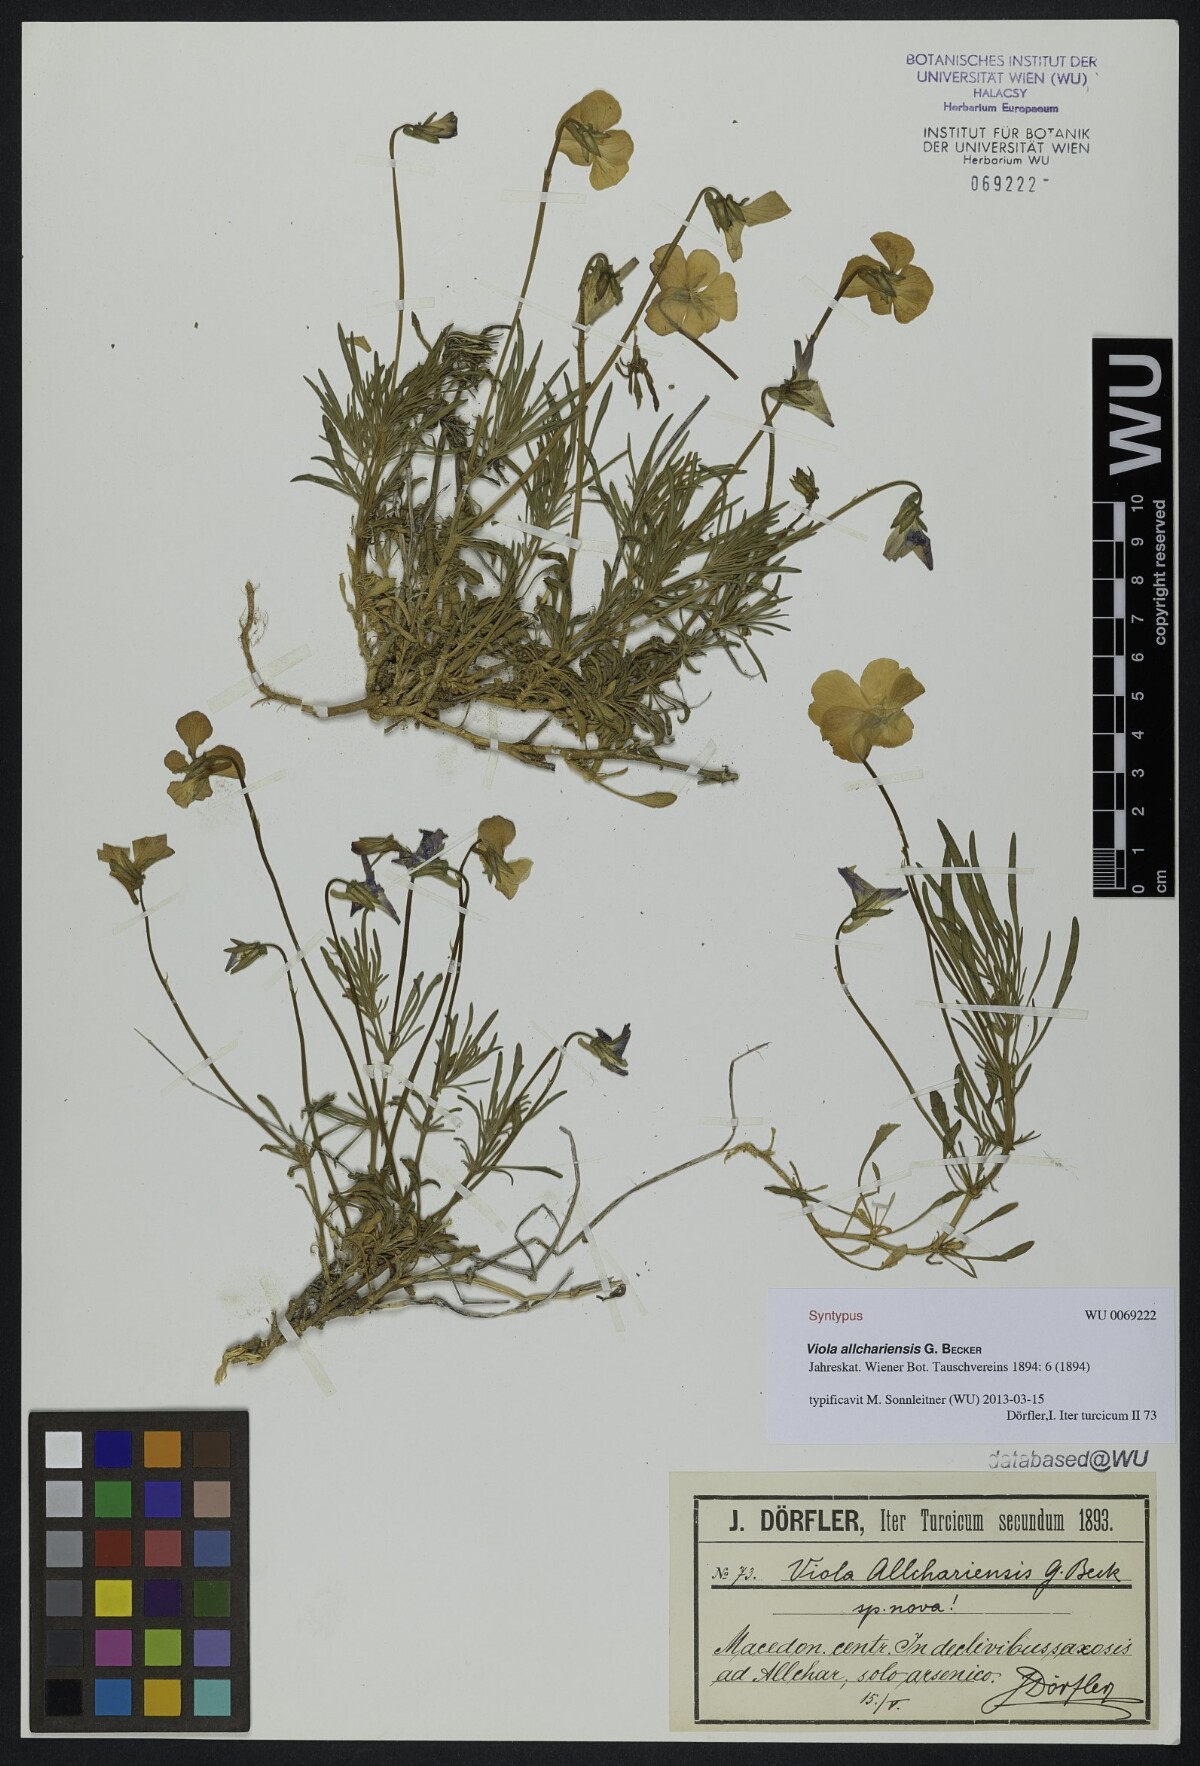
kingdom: Plantae
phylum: Tracheophyta
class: Magnoliopsida
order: Malpighiales
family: Violaceae
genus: Viola
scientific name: Viola allchariensis
